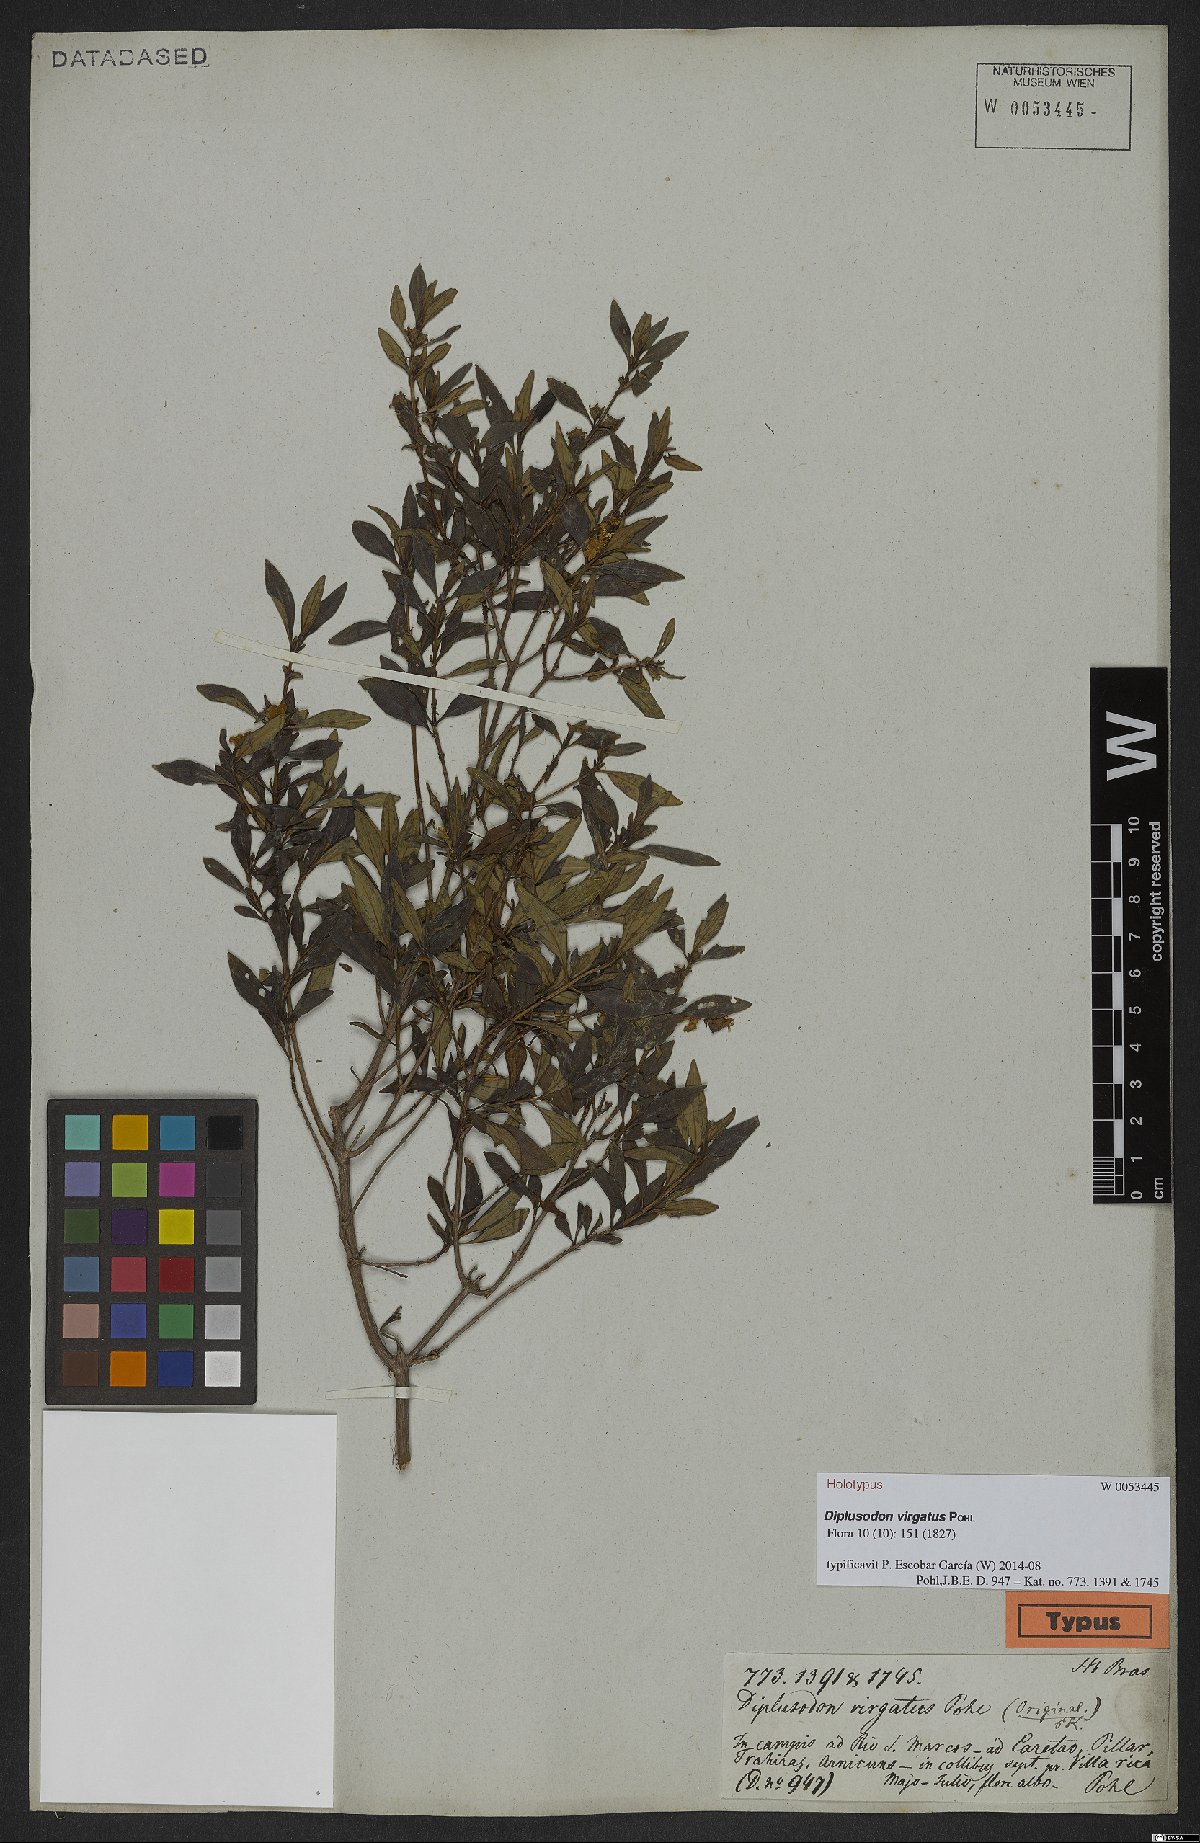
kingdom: Plantae
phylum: Tracheophyta
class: Magnoliopsida
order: Myrtales
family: Lythraceae
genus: Diplusodon
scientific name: Diplusodon virgatus
